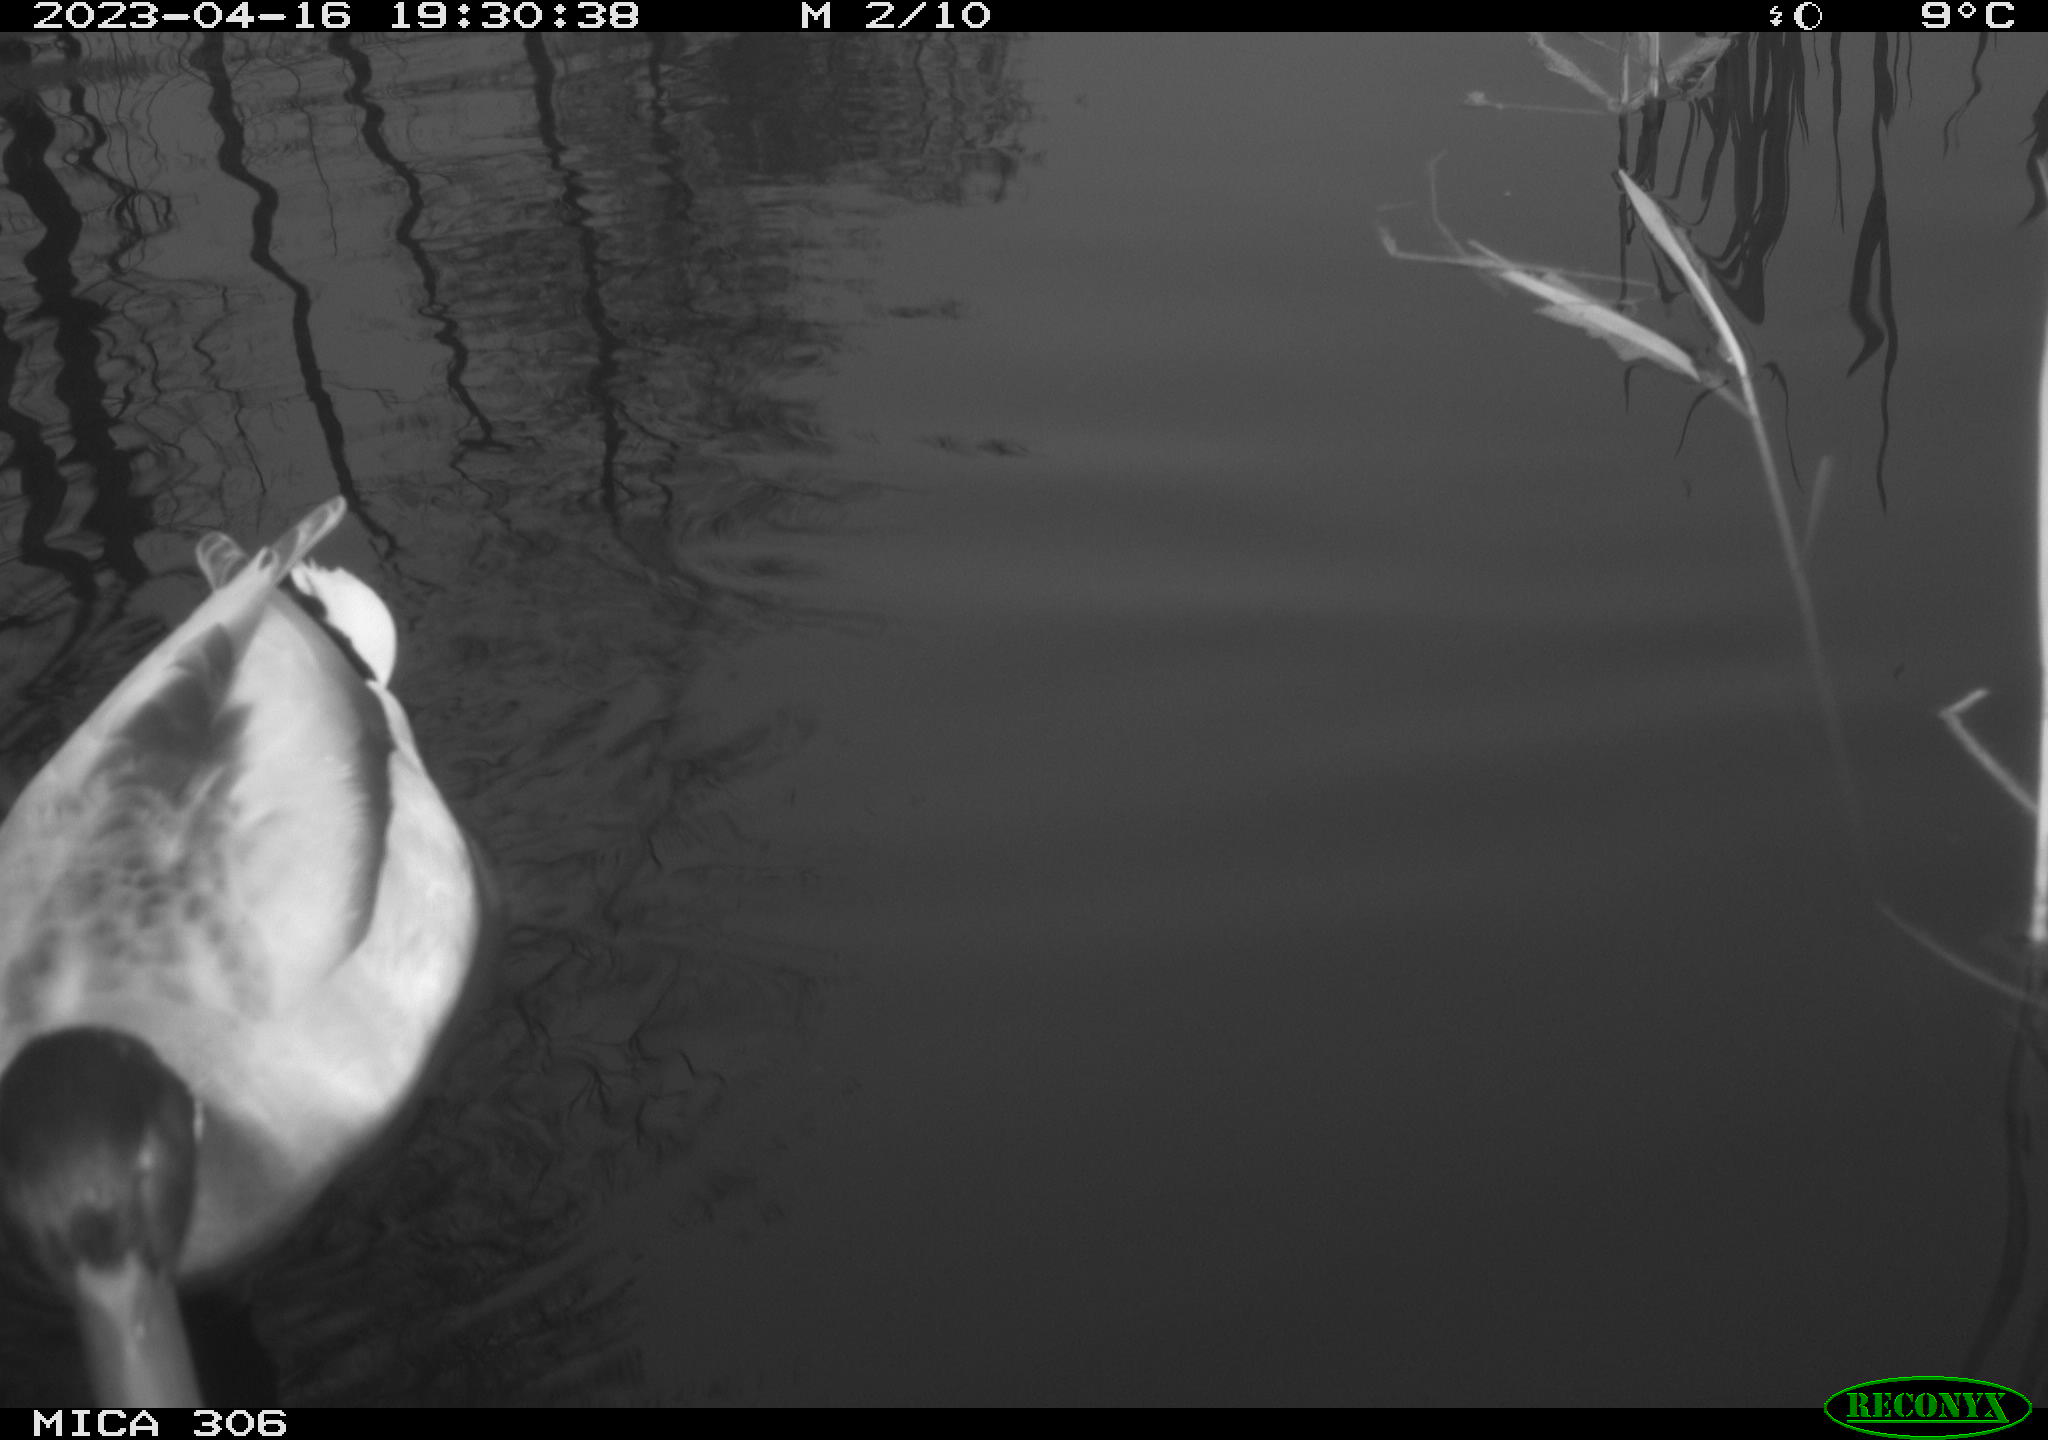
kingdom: Animalia
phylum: Chordata
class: Aves
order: Anseriformes
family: Anatidae
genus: Anas
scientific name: Anas
